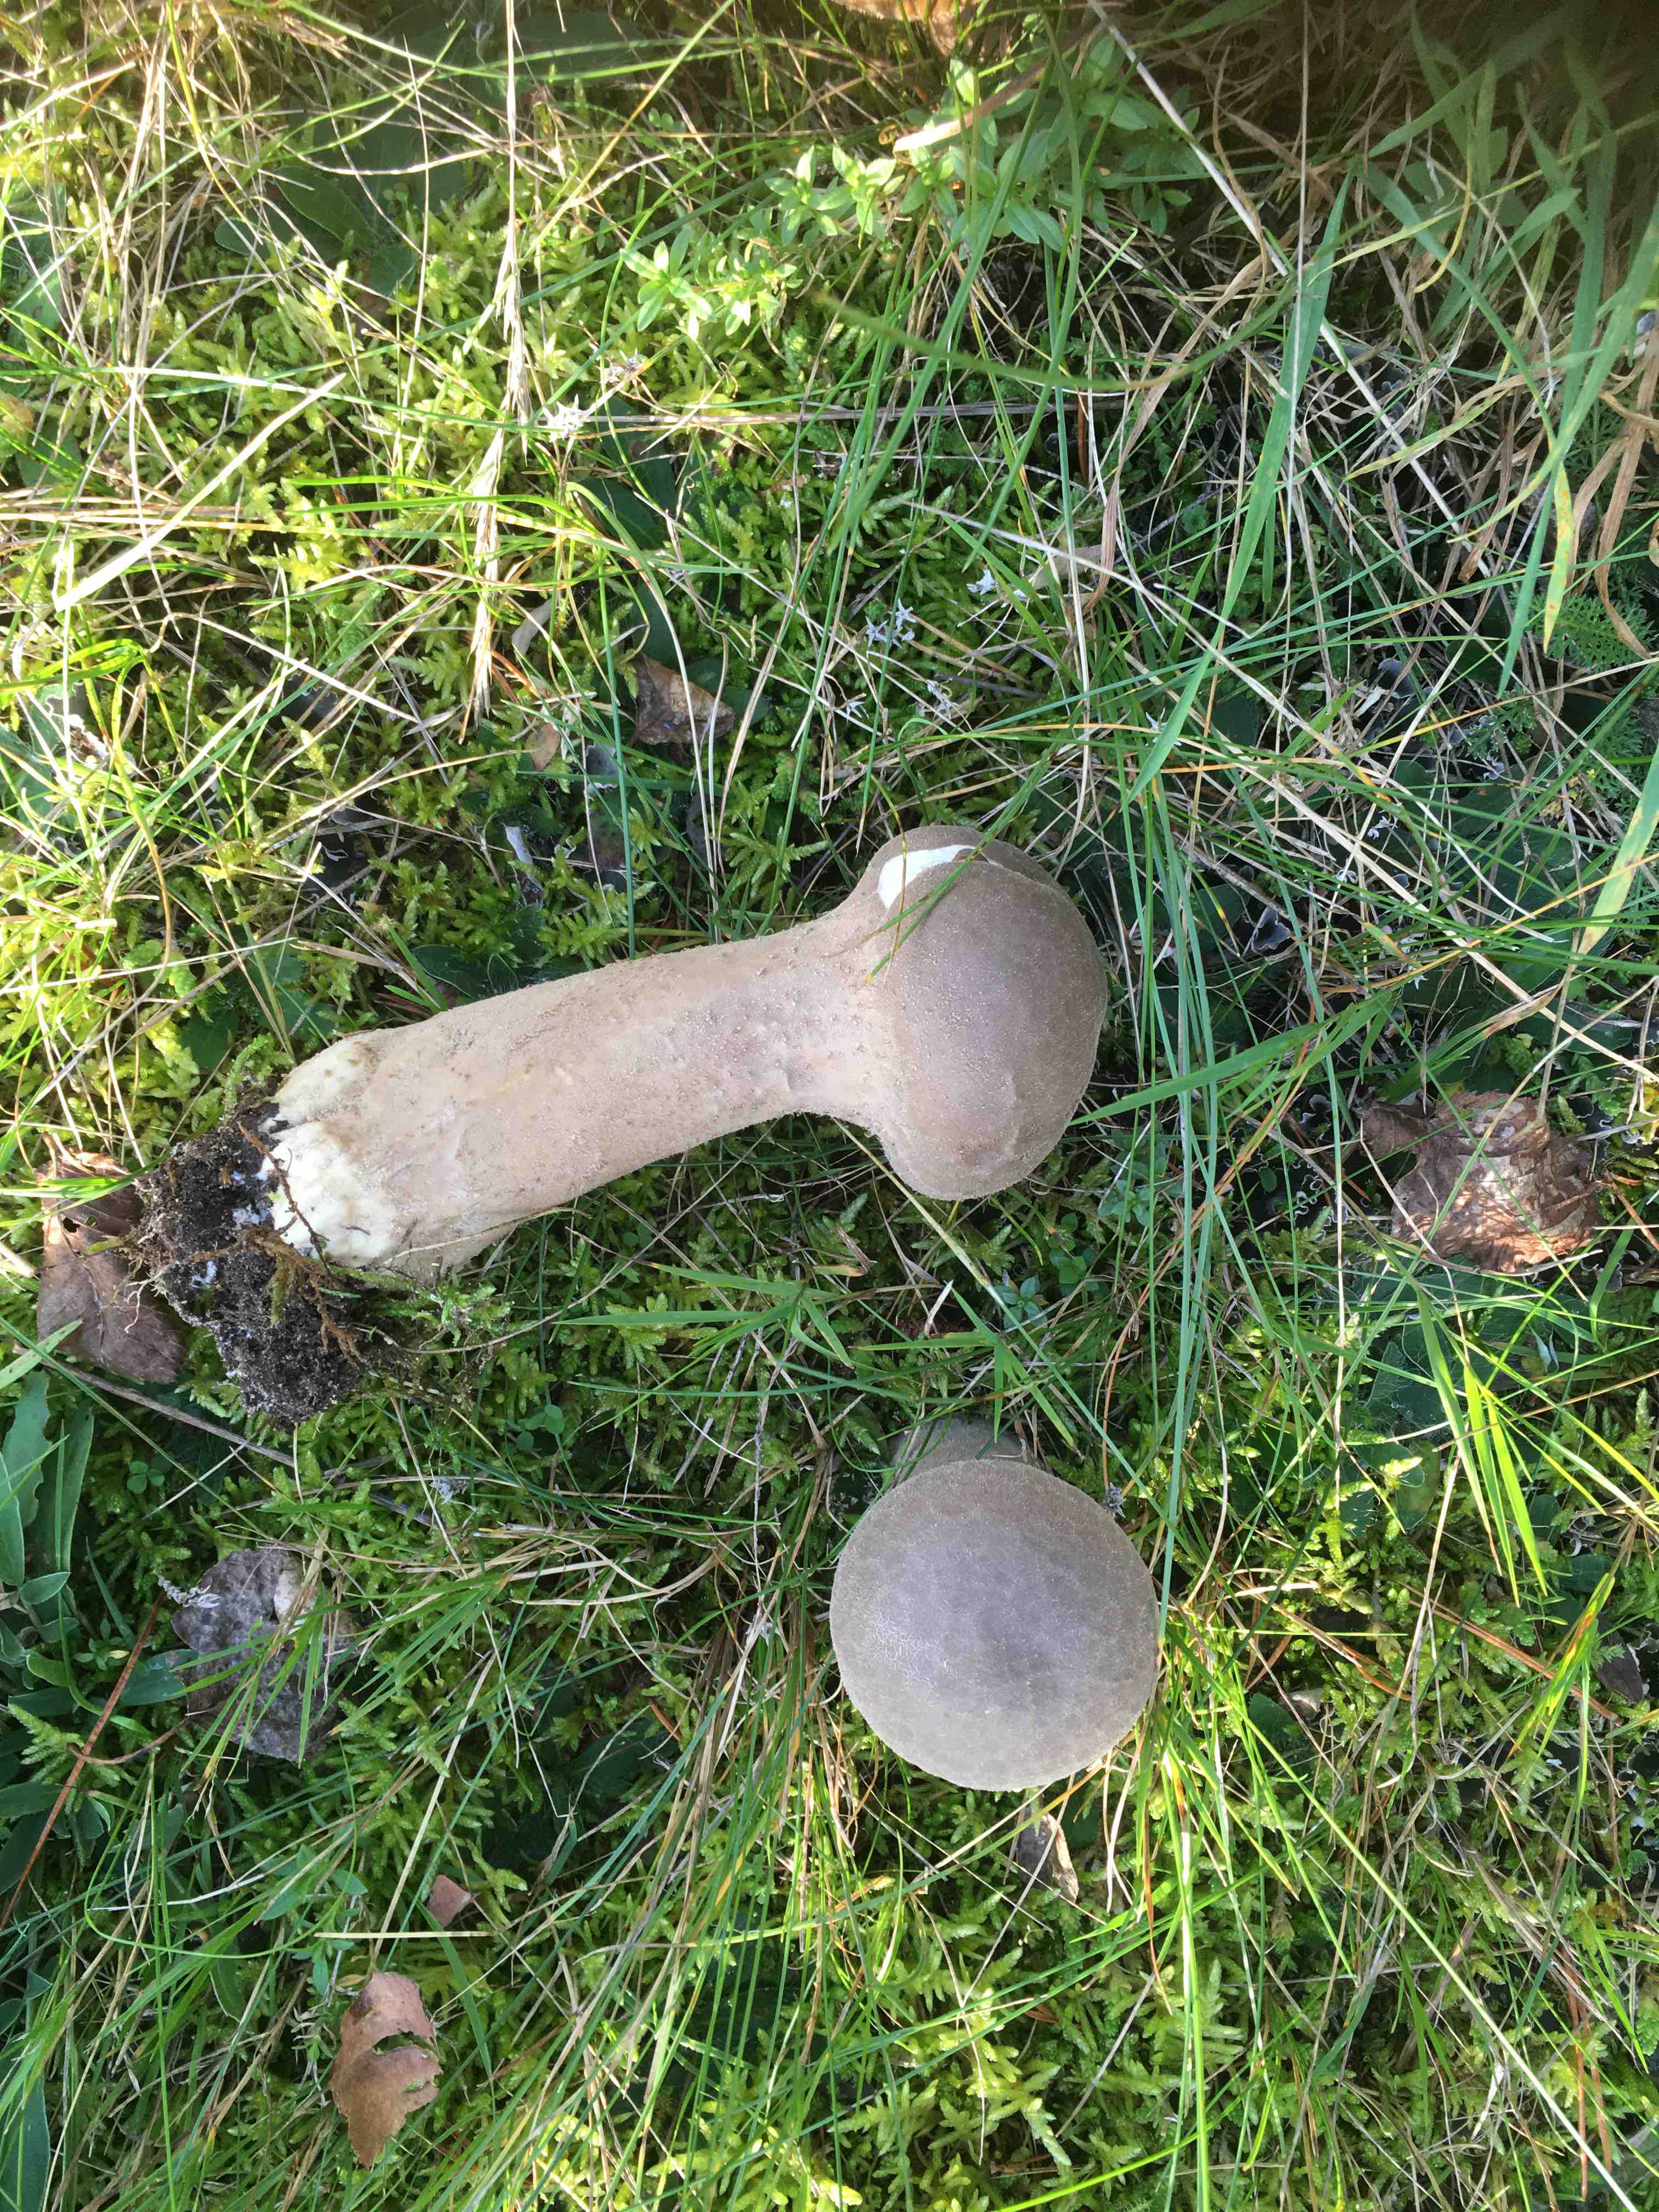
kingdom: Fungi
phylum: Basidiomycota
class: Agaricomycetes
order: Agaricales
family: Lycoperdaceae
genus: Lycoperdon
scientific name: Lycoperdon excipuliforme
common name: højstokket støvbold
